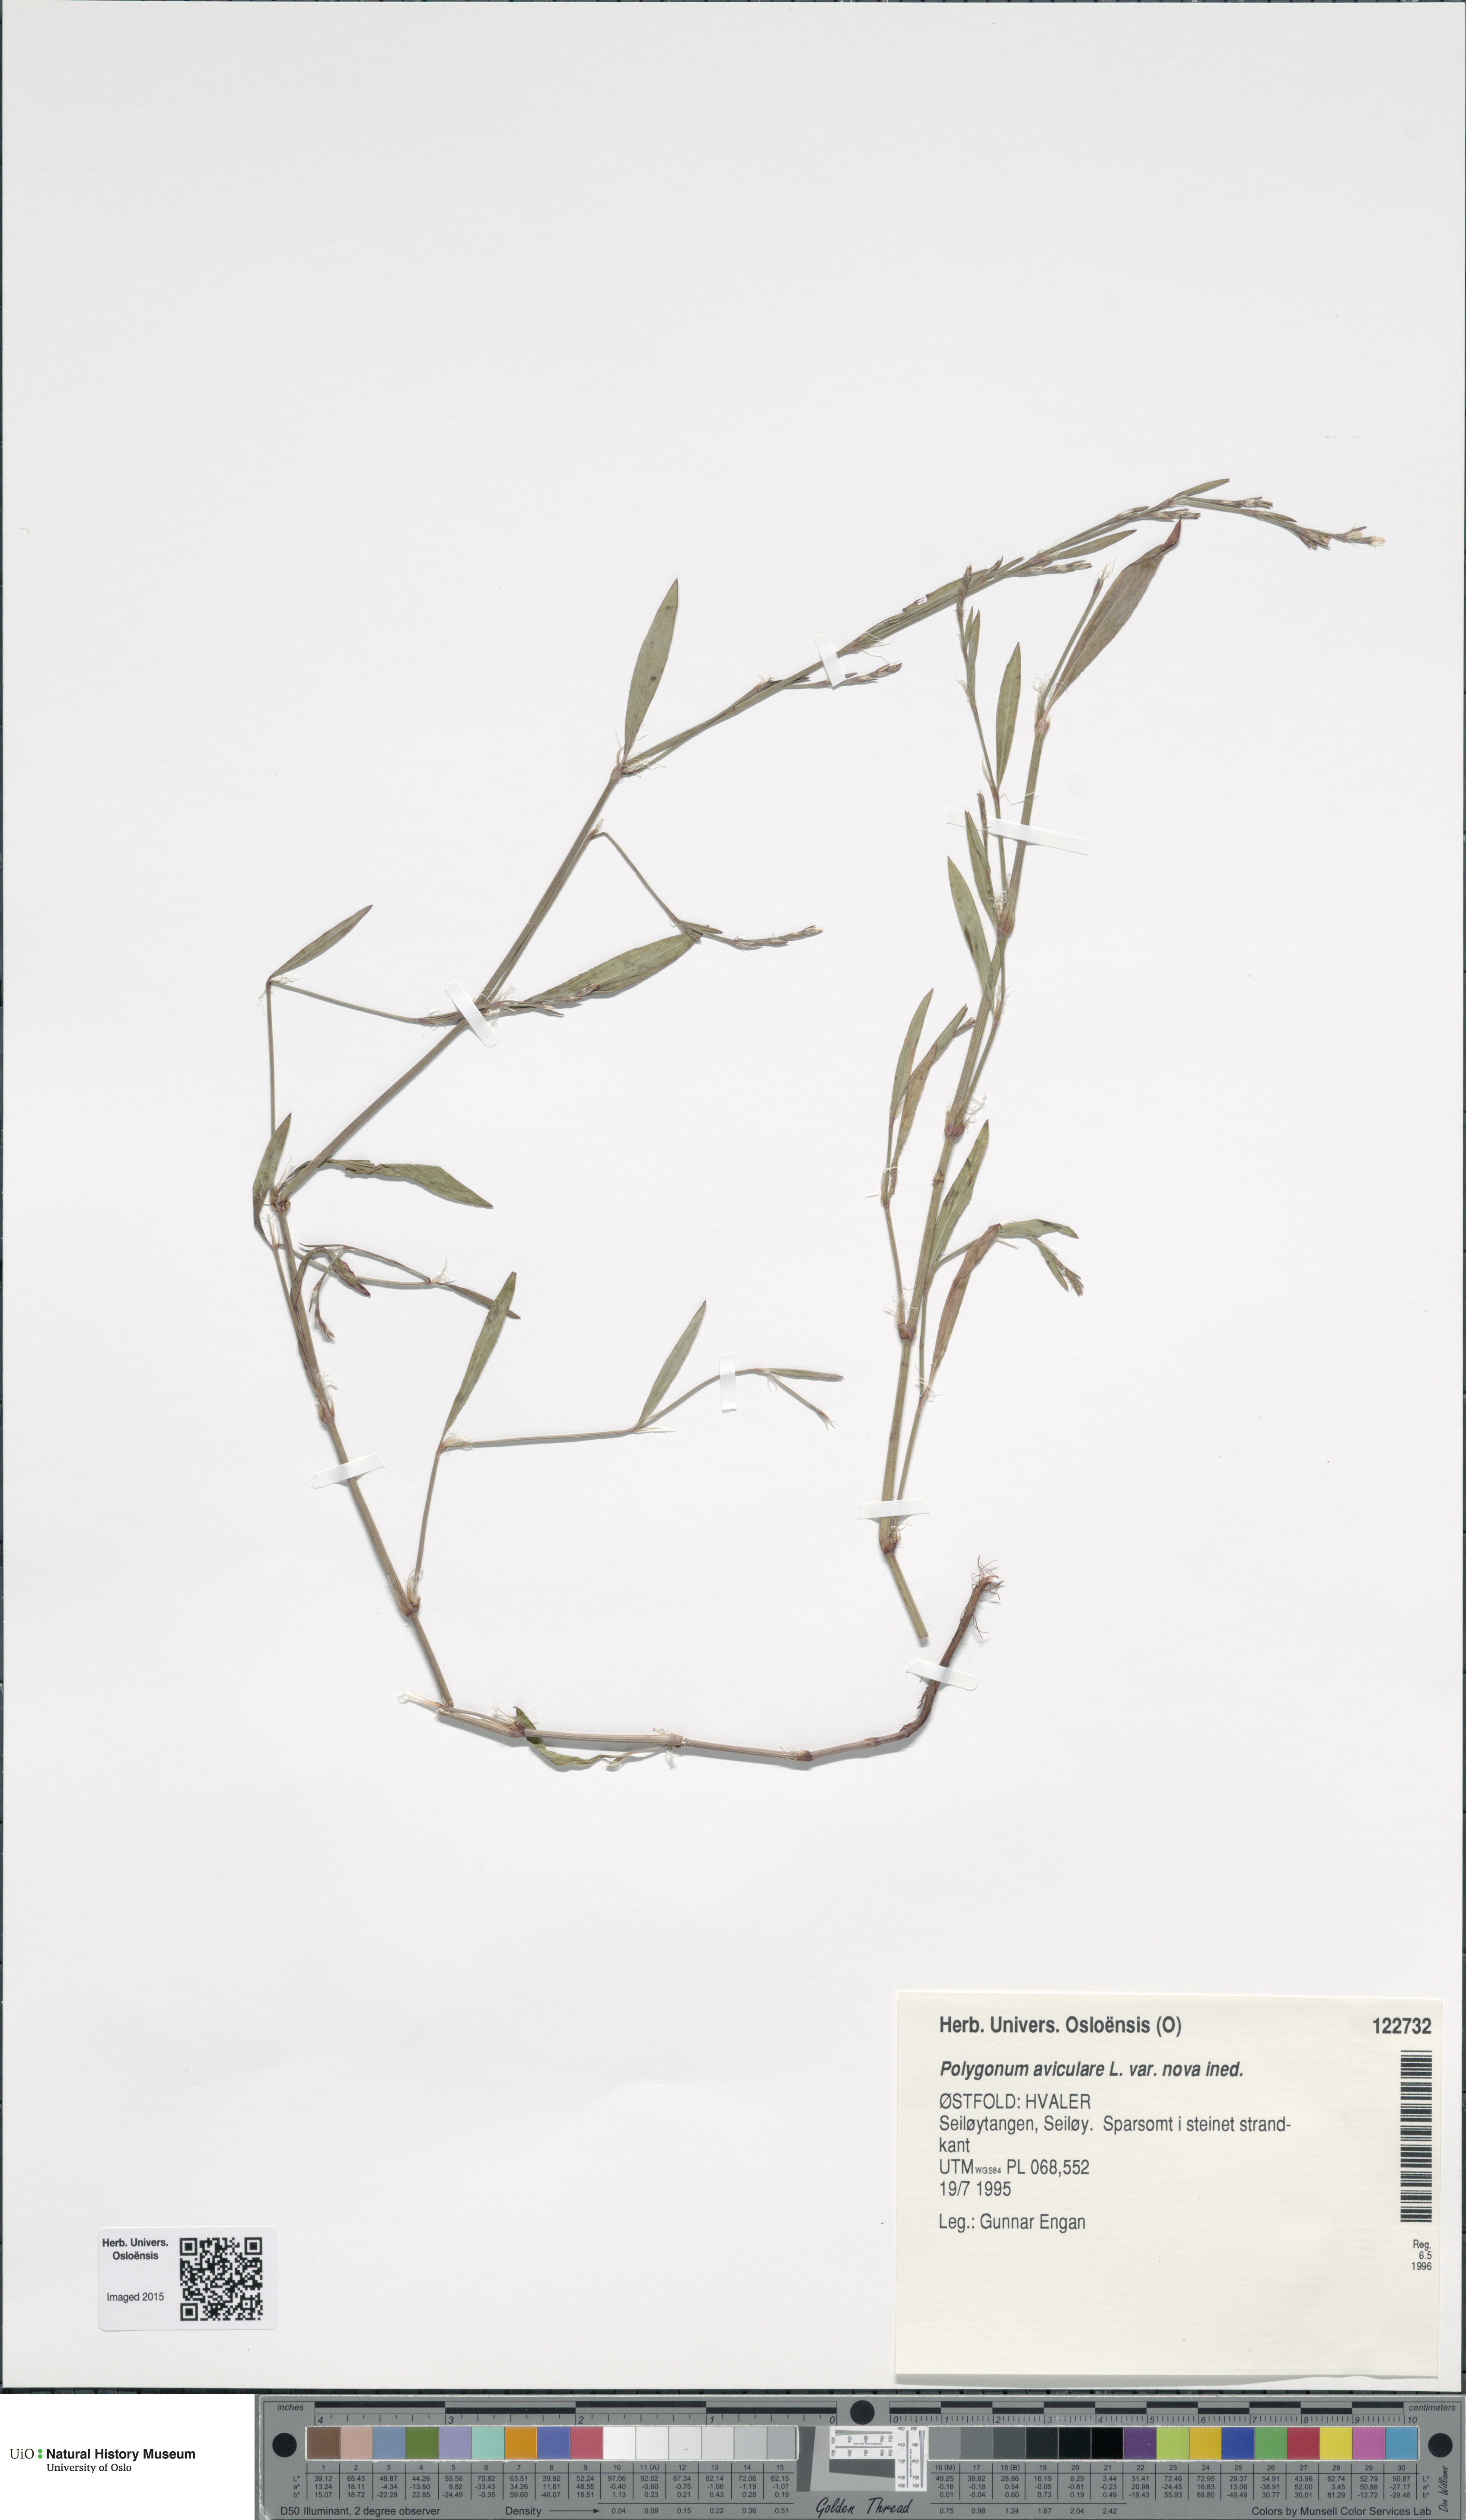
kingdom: Plantae
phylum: Tracheophyta
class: Magnoliopsida
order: Caryophyllales
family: Polygonaceae
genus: Polygonum
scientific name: Polygonum excelsius
